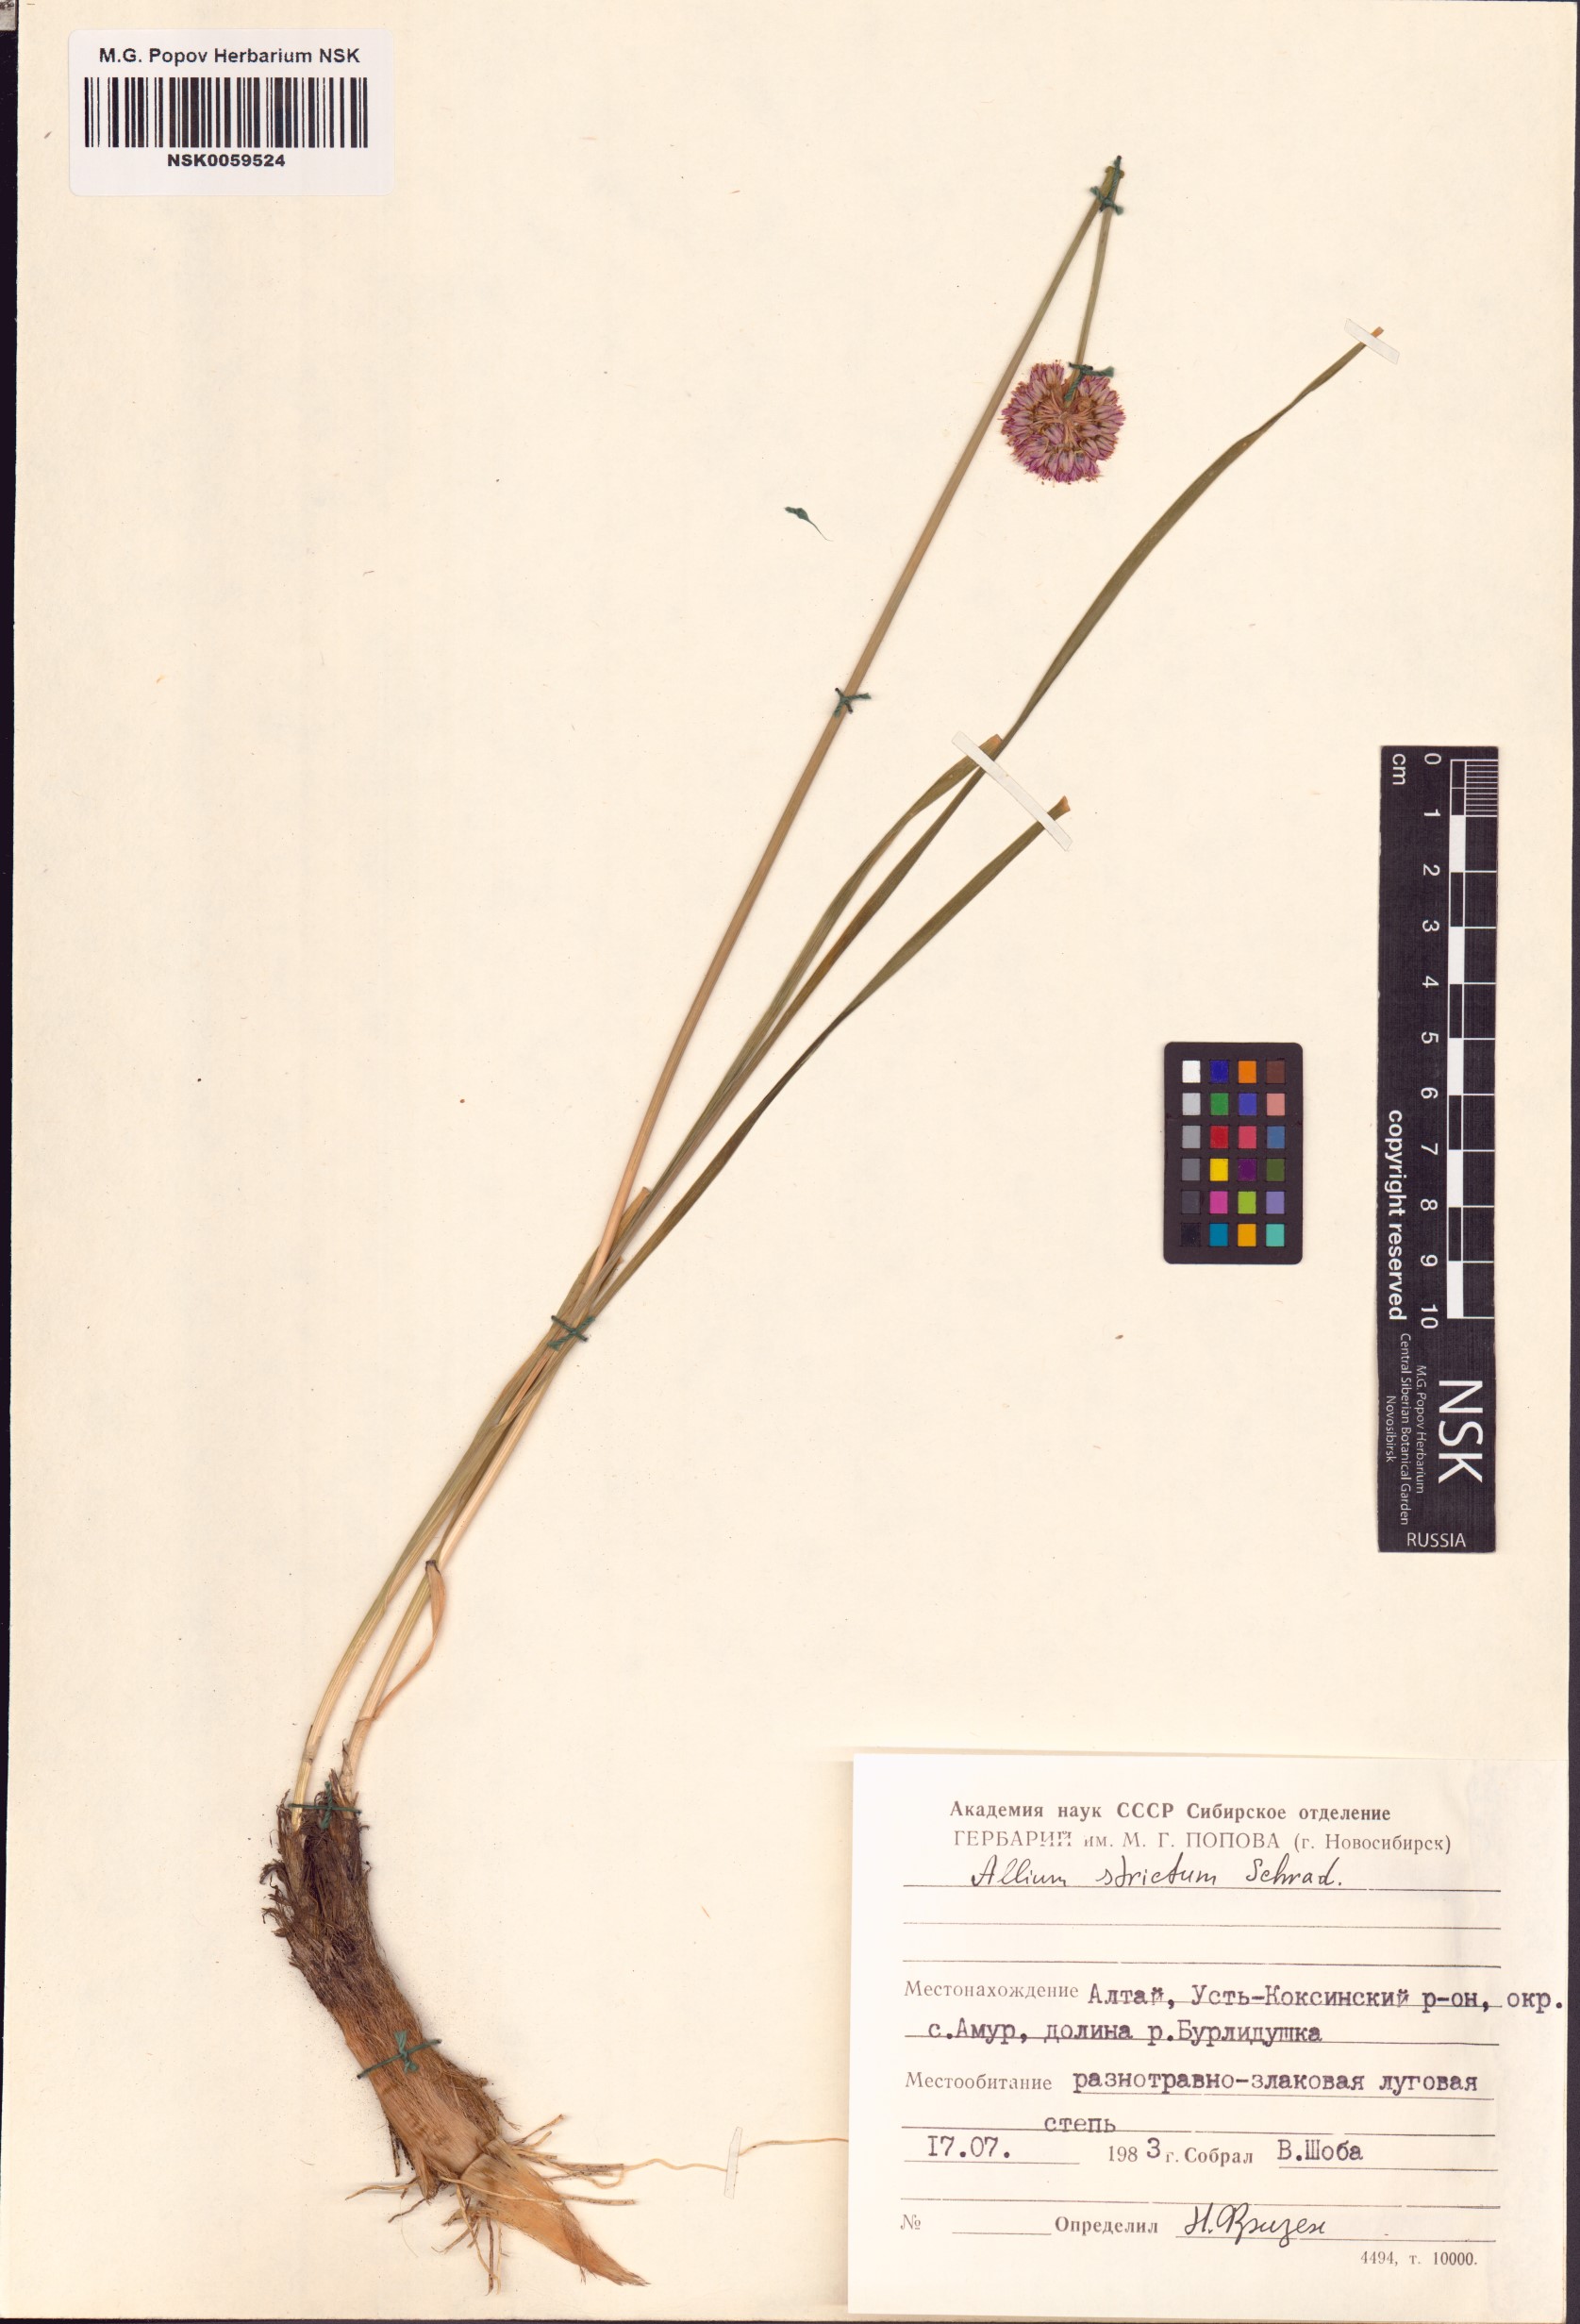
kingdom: Plantae
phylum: Tracheophyta
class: Liliopsida
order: Asparagales
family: Amaryllidaceae
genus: Allium
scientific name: Allium strictum
